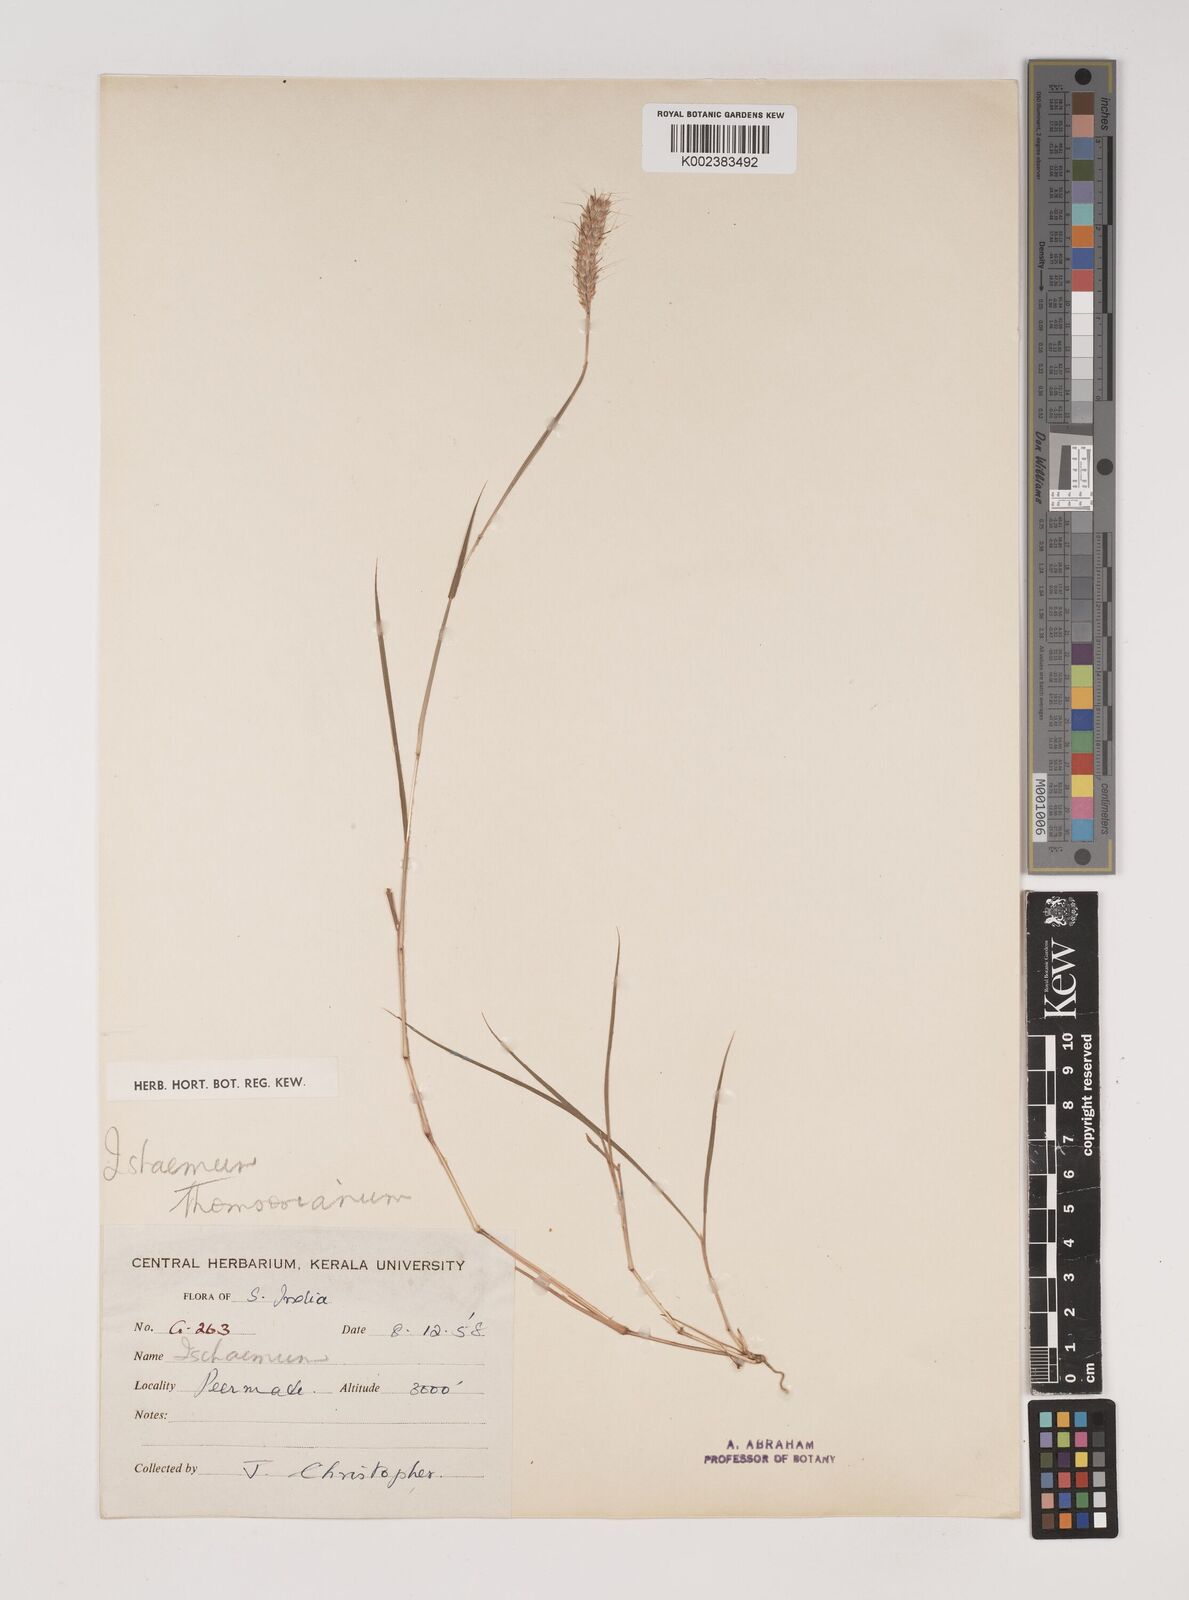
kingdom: Plantae
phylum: Tracheophyta
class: Liliopsida
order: Poales
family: Poaceae
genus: Ischaemum
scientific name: Ischaemum thomsonianum
